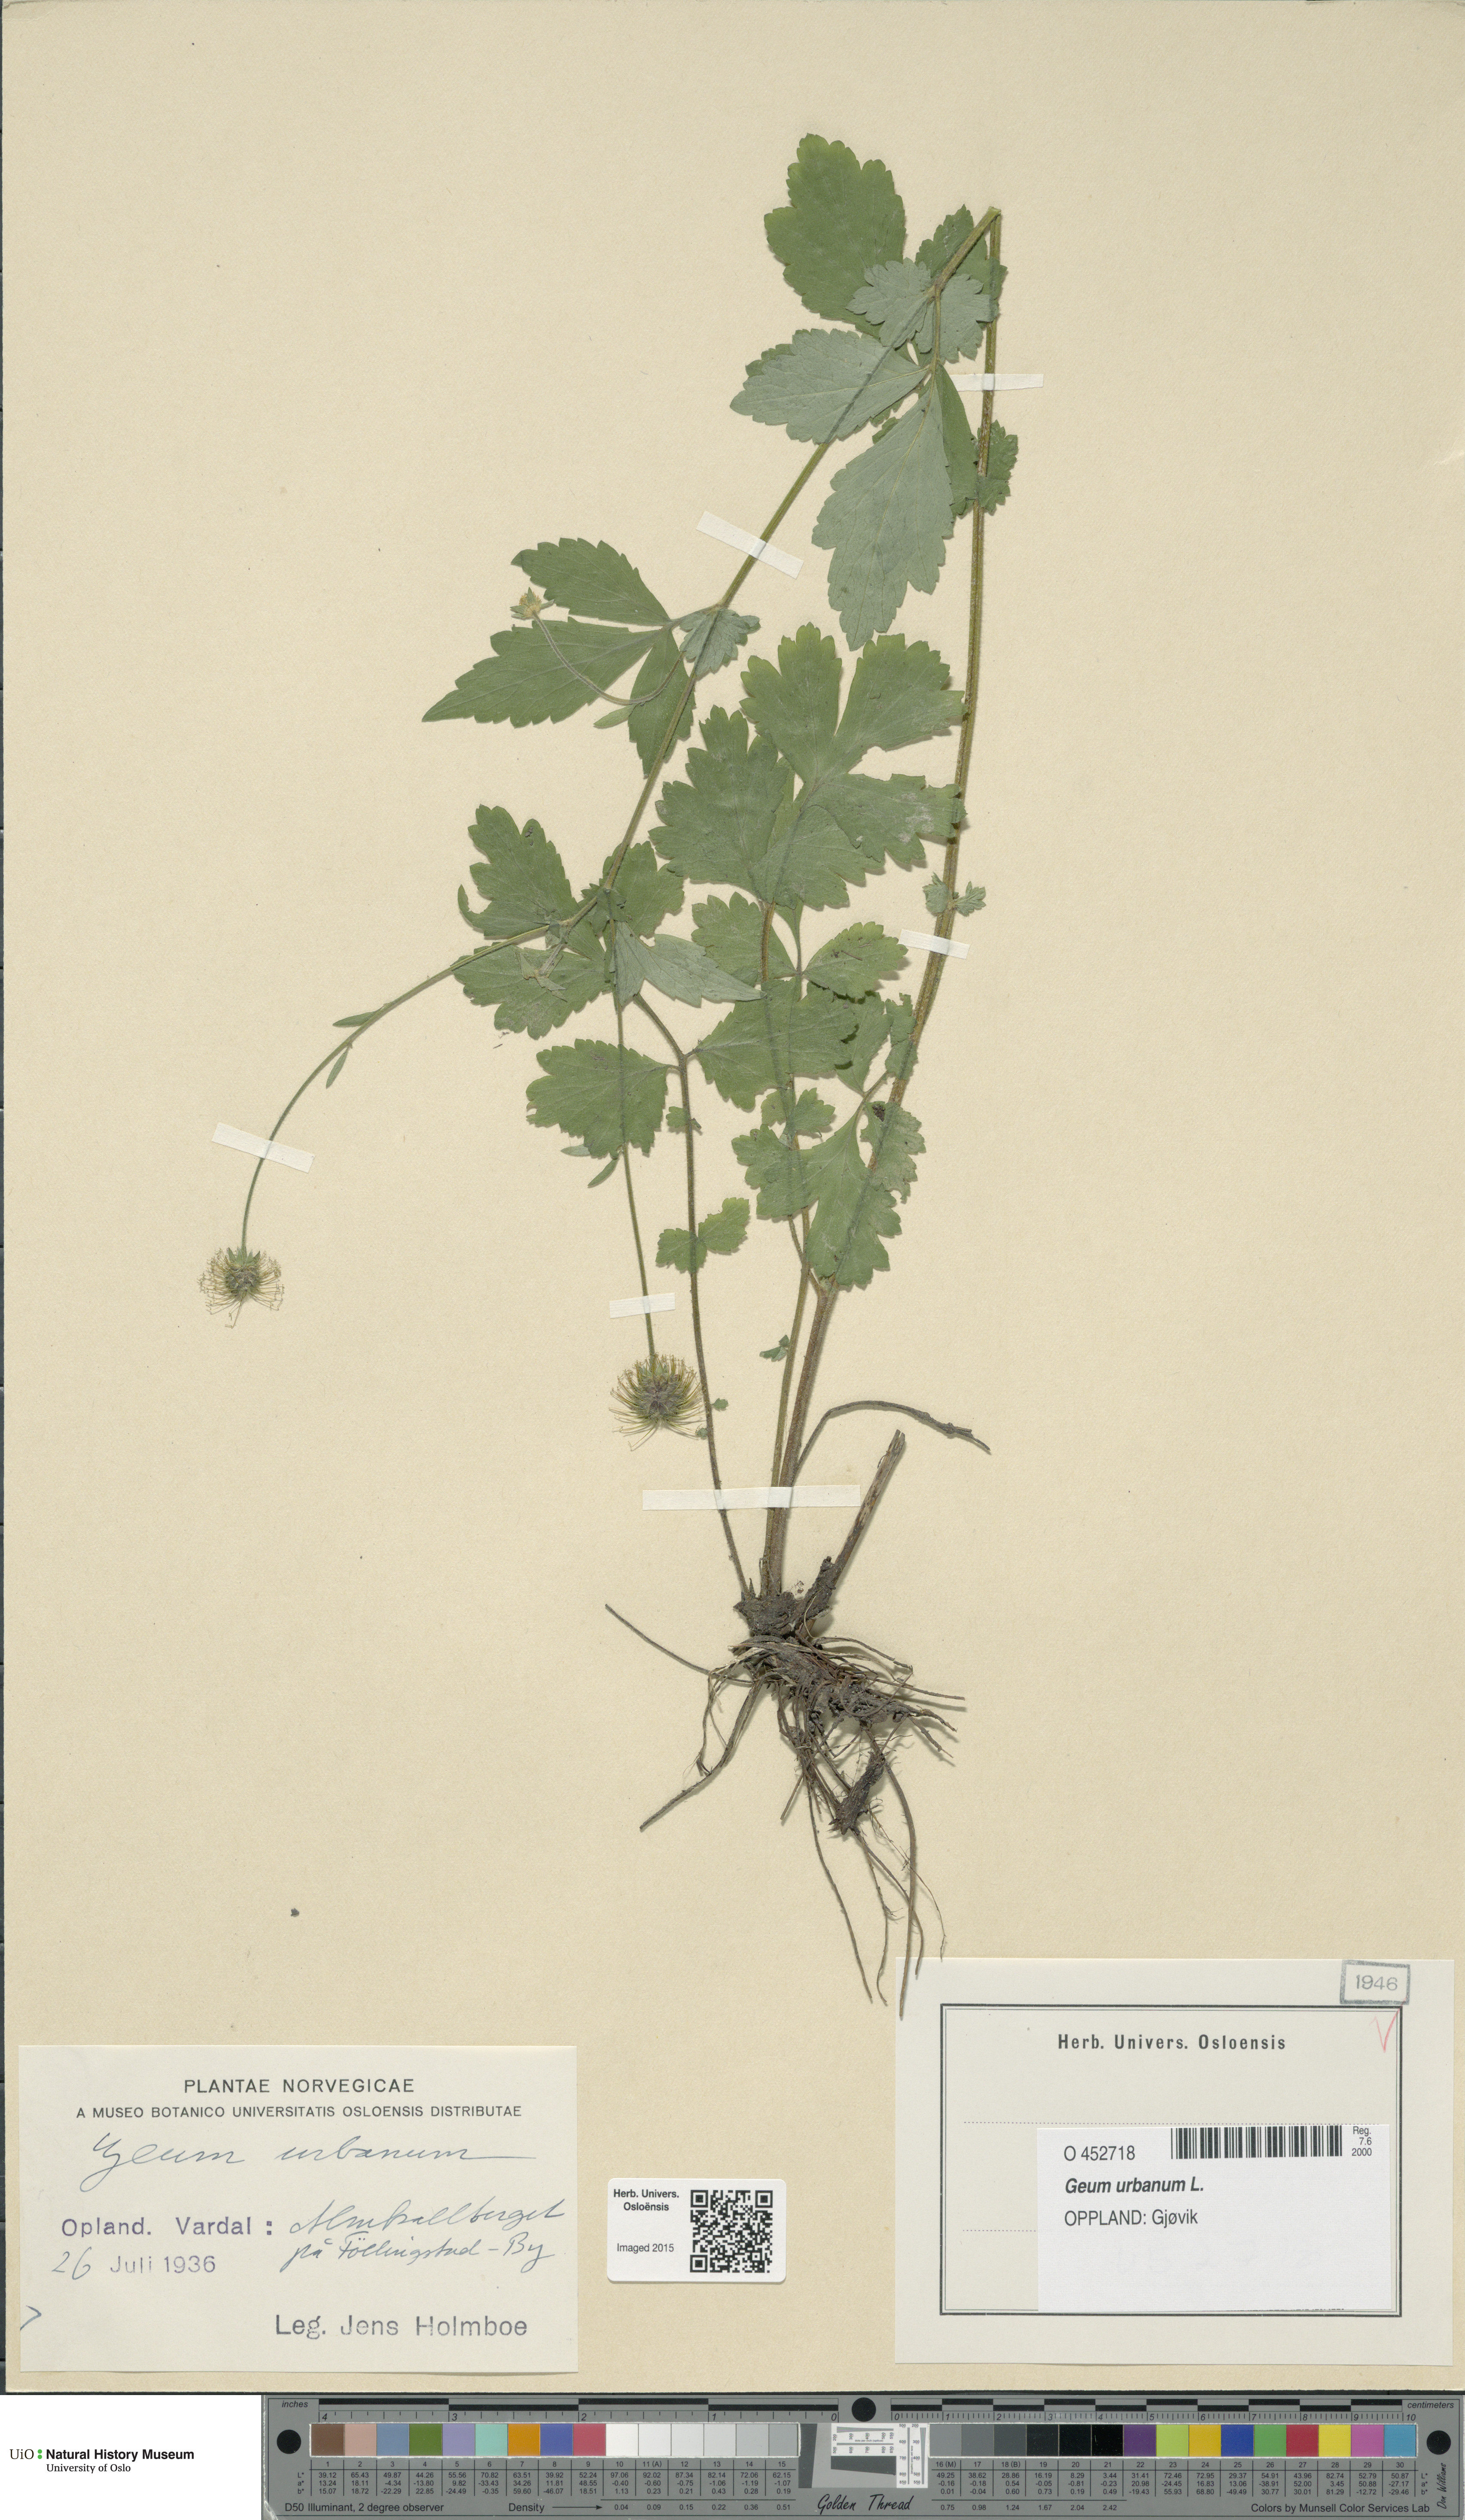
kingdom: Plantae
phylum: Tracheophyta
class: Magnoliopsida
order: Rosales
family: Rosaceae
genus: Geum
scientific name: Geum urbanum
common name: Wood avens
